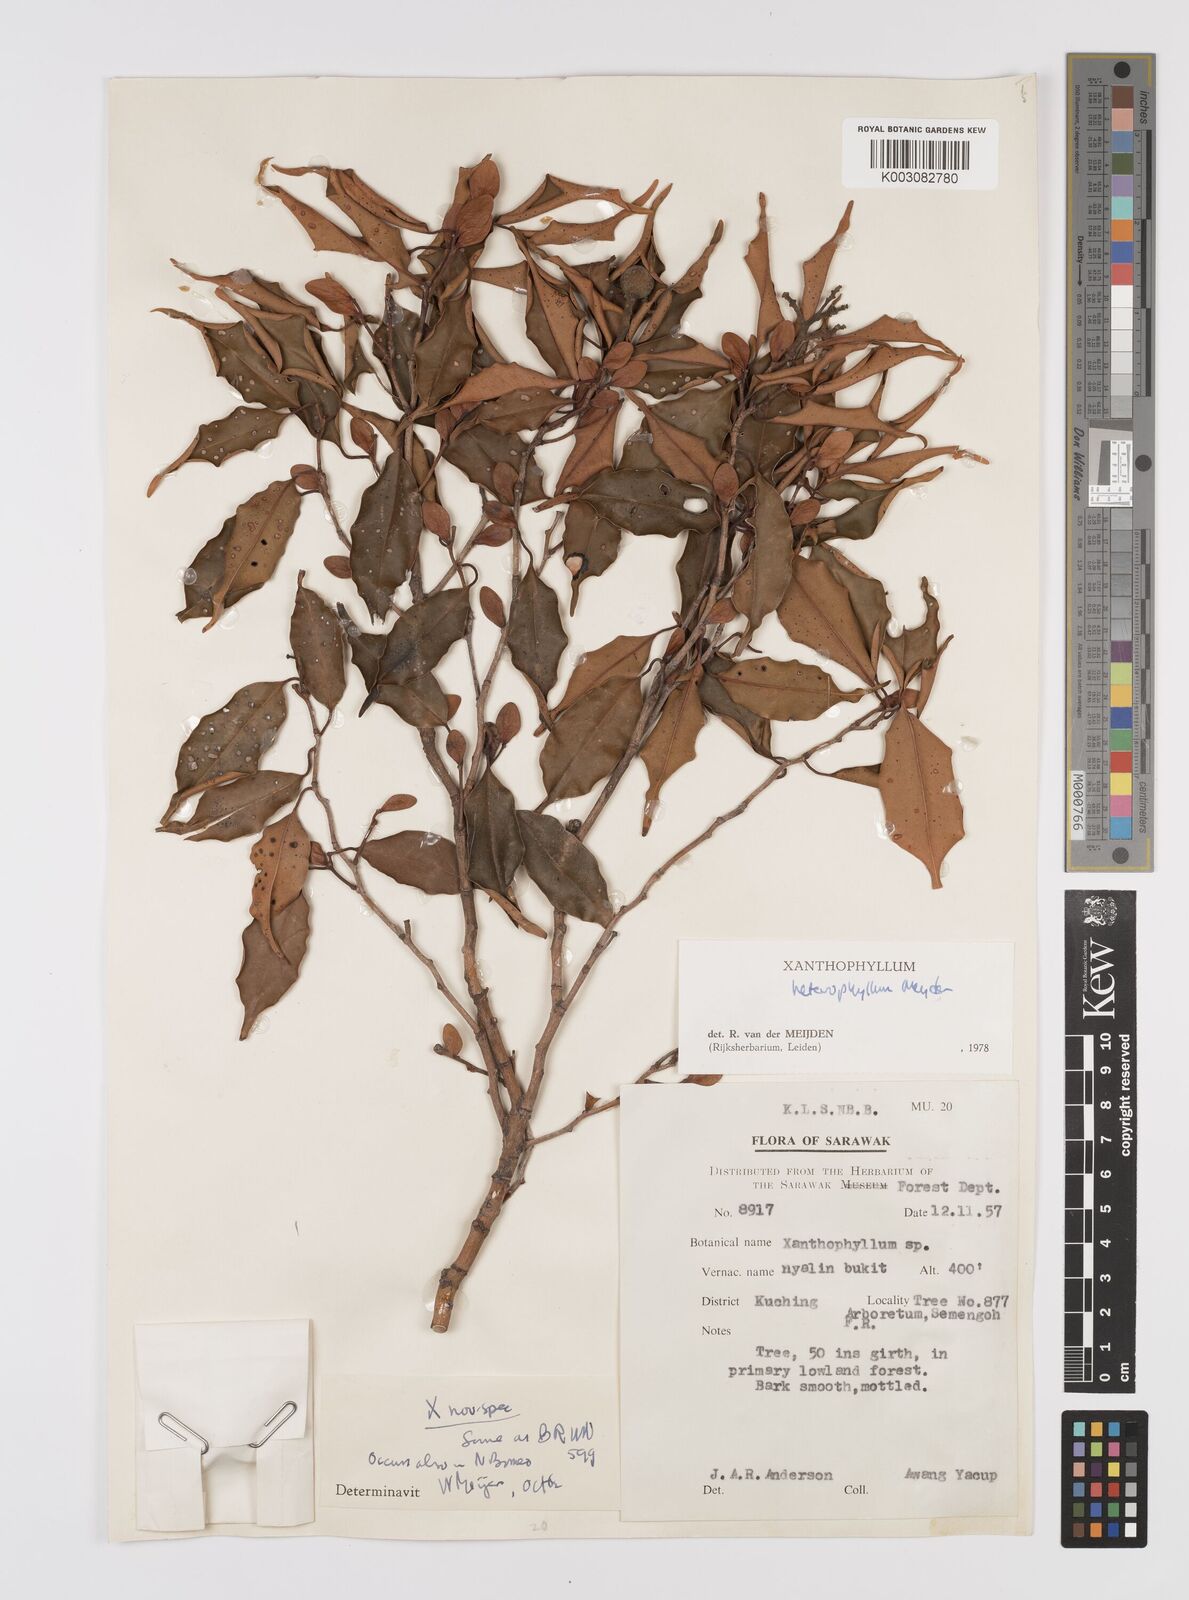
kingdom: Plantae
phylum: Tracheophyta
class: Magnoliopsida
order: Fabales
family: Polygalaceae
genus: Xanthophyllum
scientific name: Xanthophyllum heterophyllum
